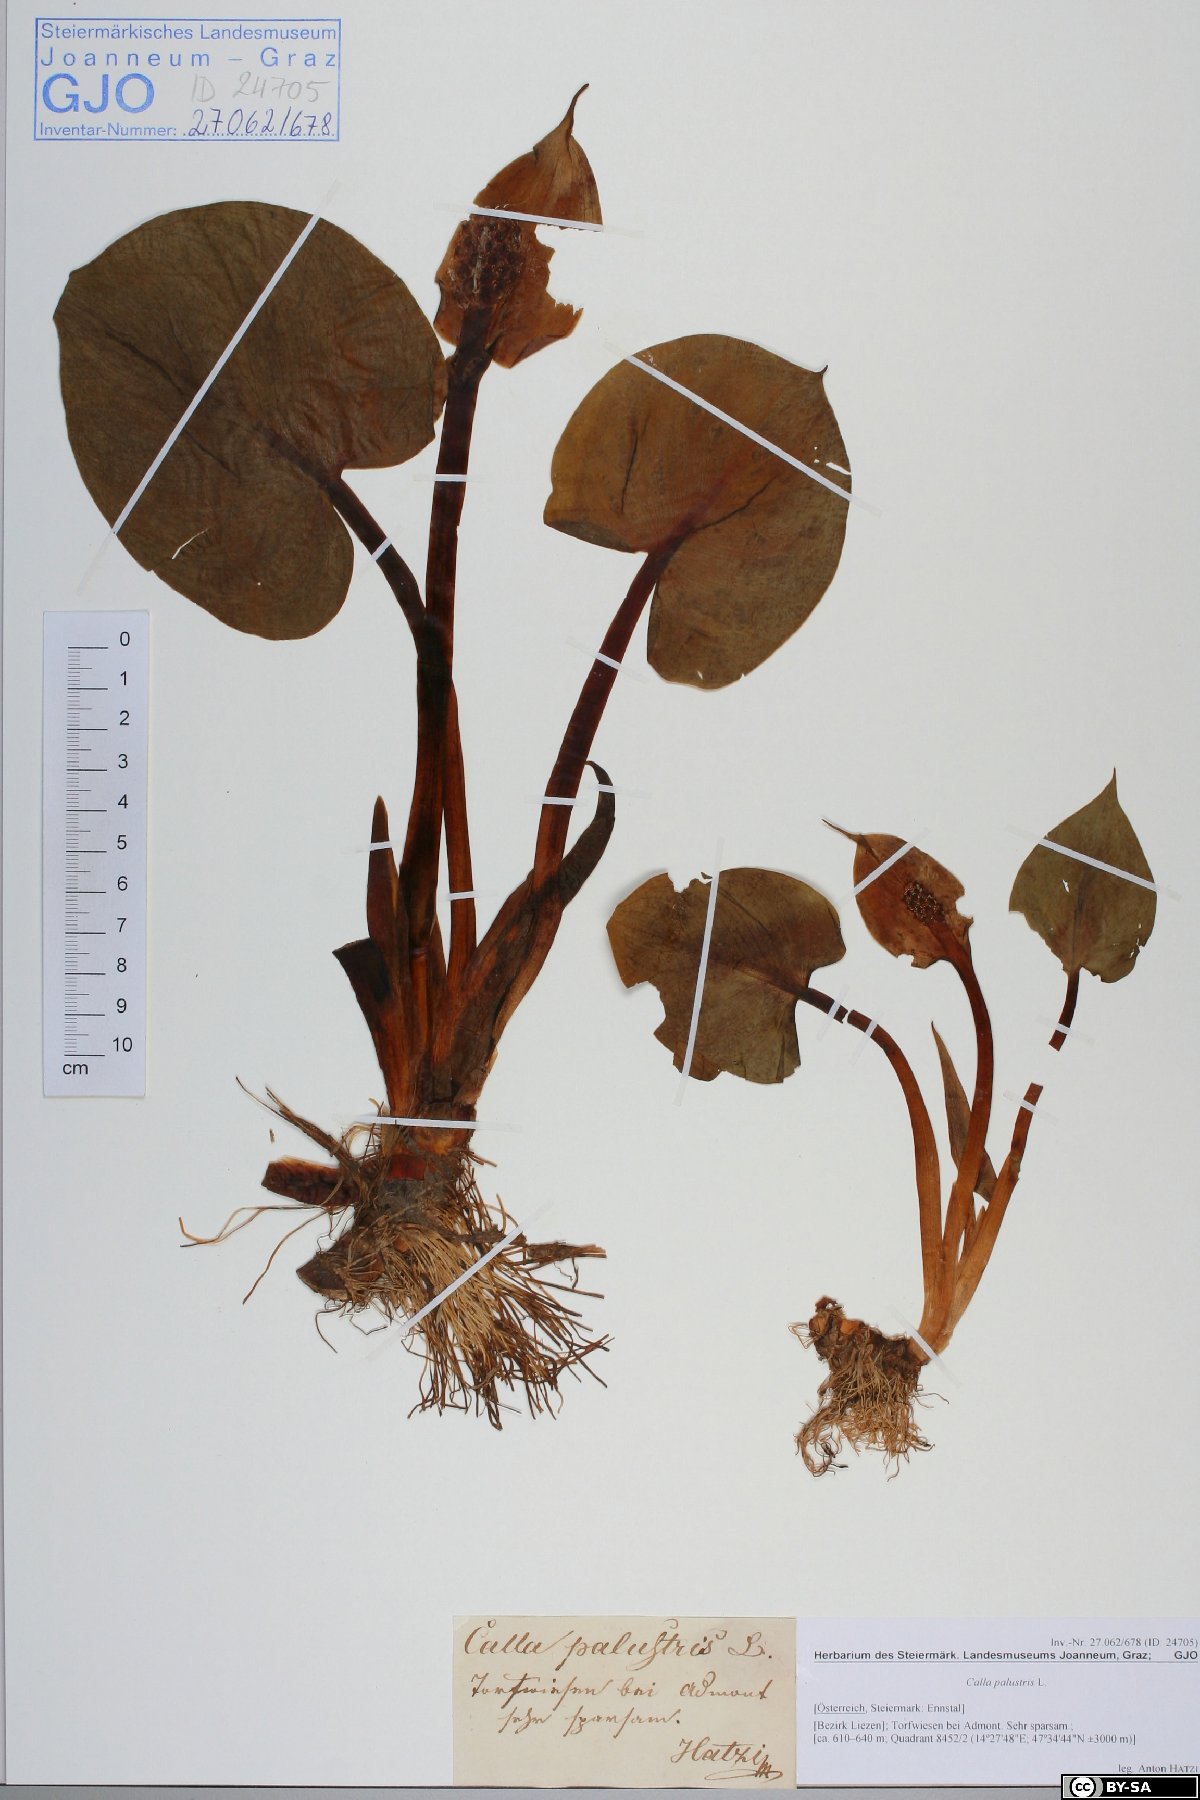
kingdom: Plantae
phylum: Tracheophyta
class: Liliopsida
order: Alismatales
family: Araceae
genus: Calla
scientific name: Calla palustris
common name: Bog arum
